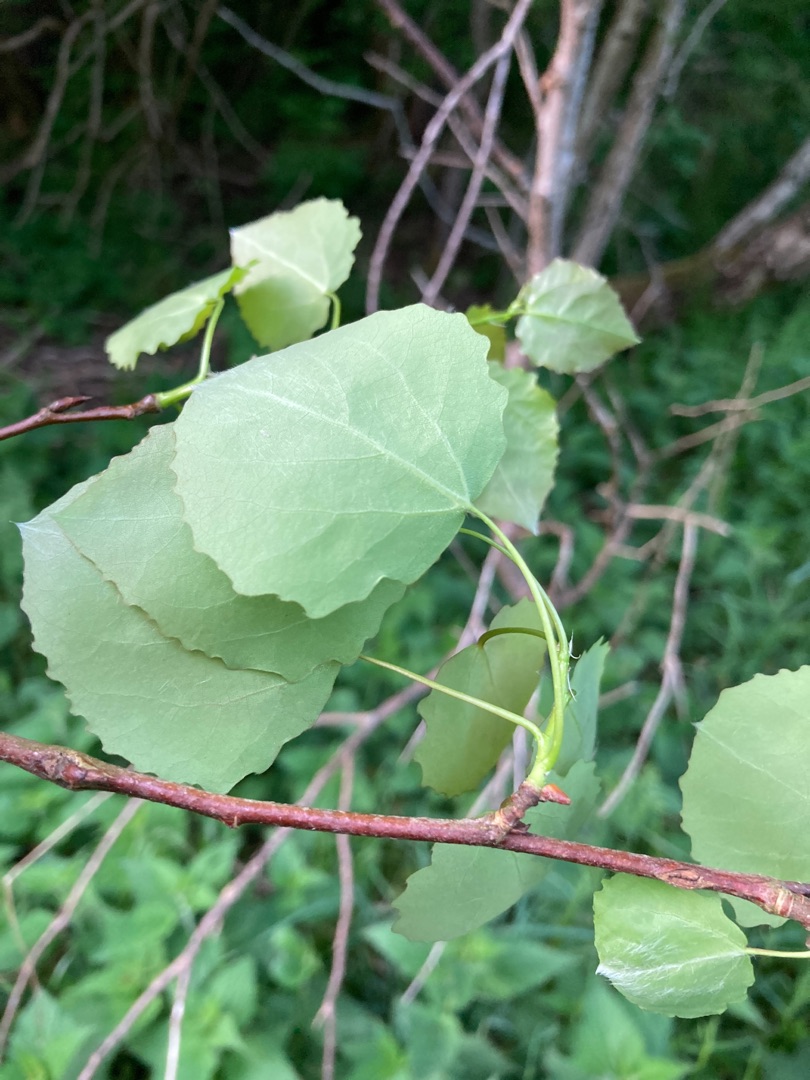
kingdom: Plantae
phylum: Tracheophyta
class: Magnoliopsida
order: Malpighiales
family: Salicaceae
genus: Populus
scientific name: Populus tremula
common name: Bævreasp
